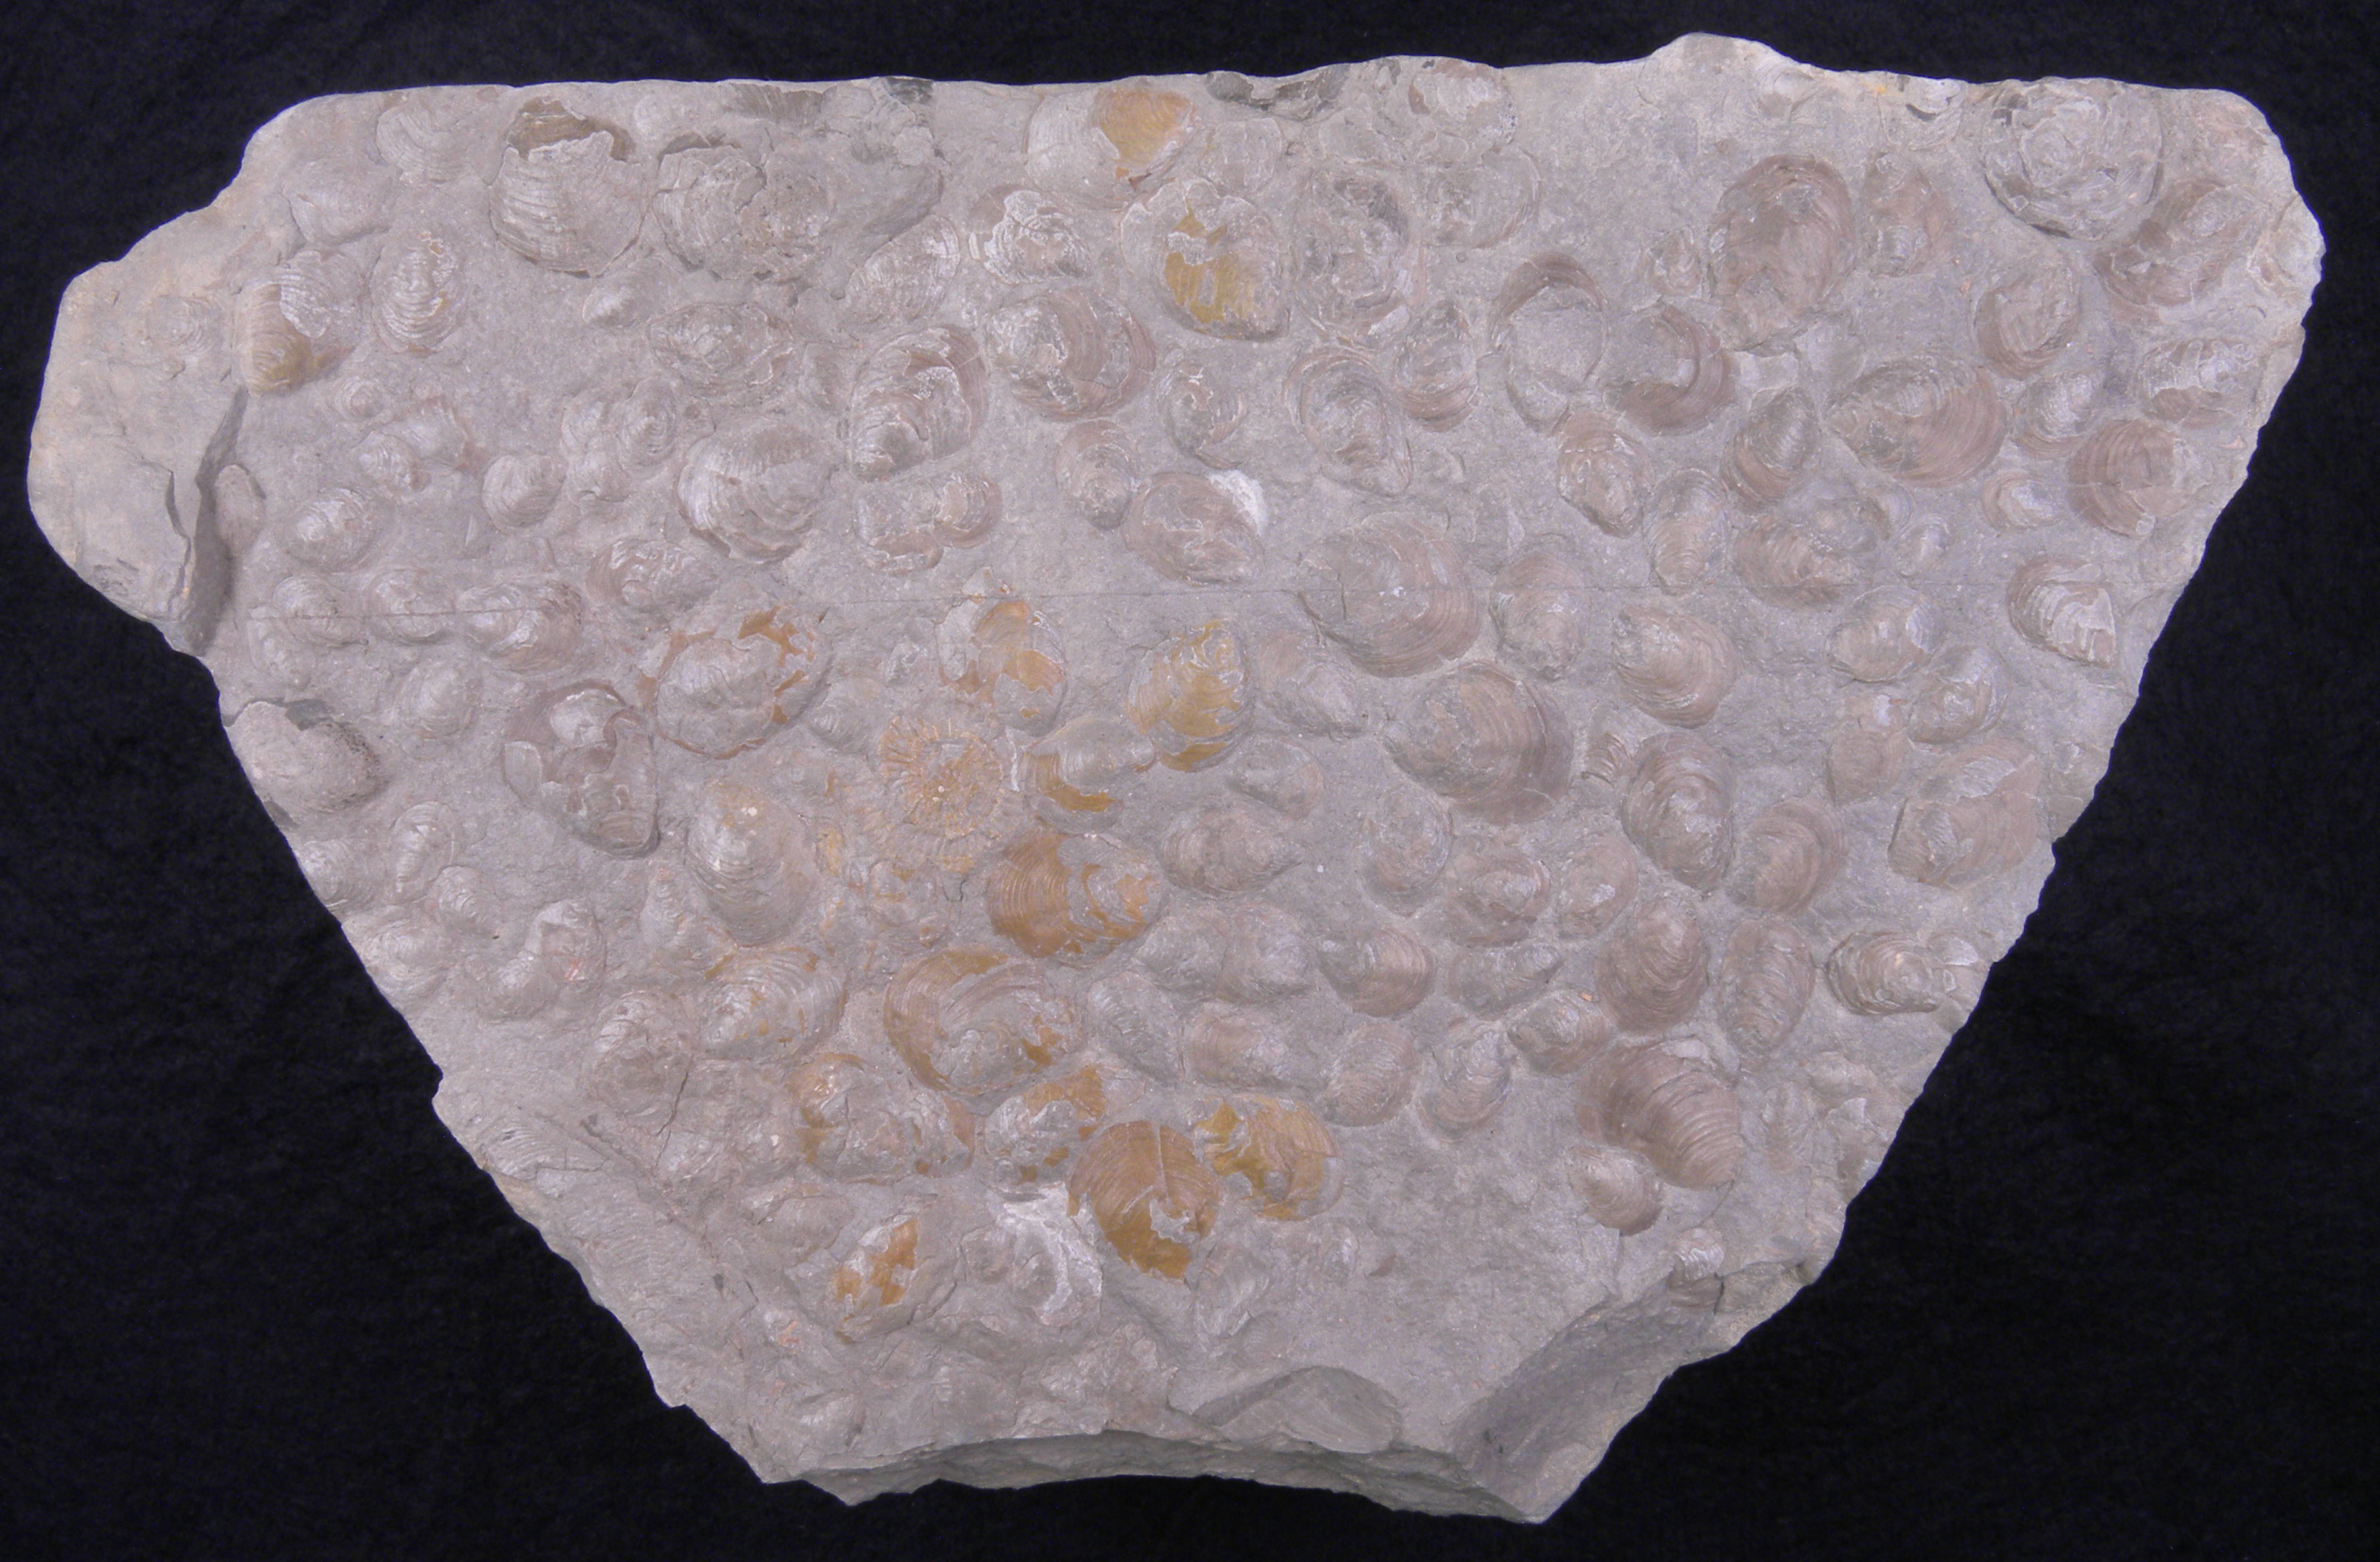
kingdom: Animalia
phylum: Mollusca
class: Bivalvia
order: Myalinida
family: Inoceramidae
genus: Inoceramus
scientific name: Inoceramus dubius
